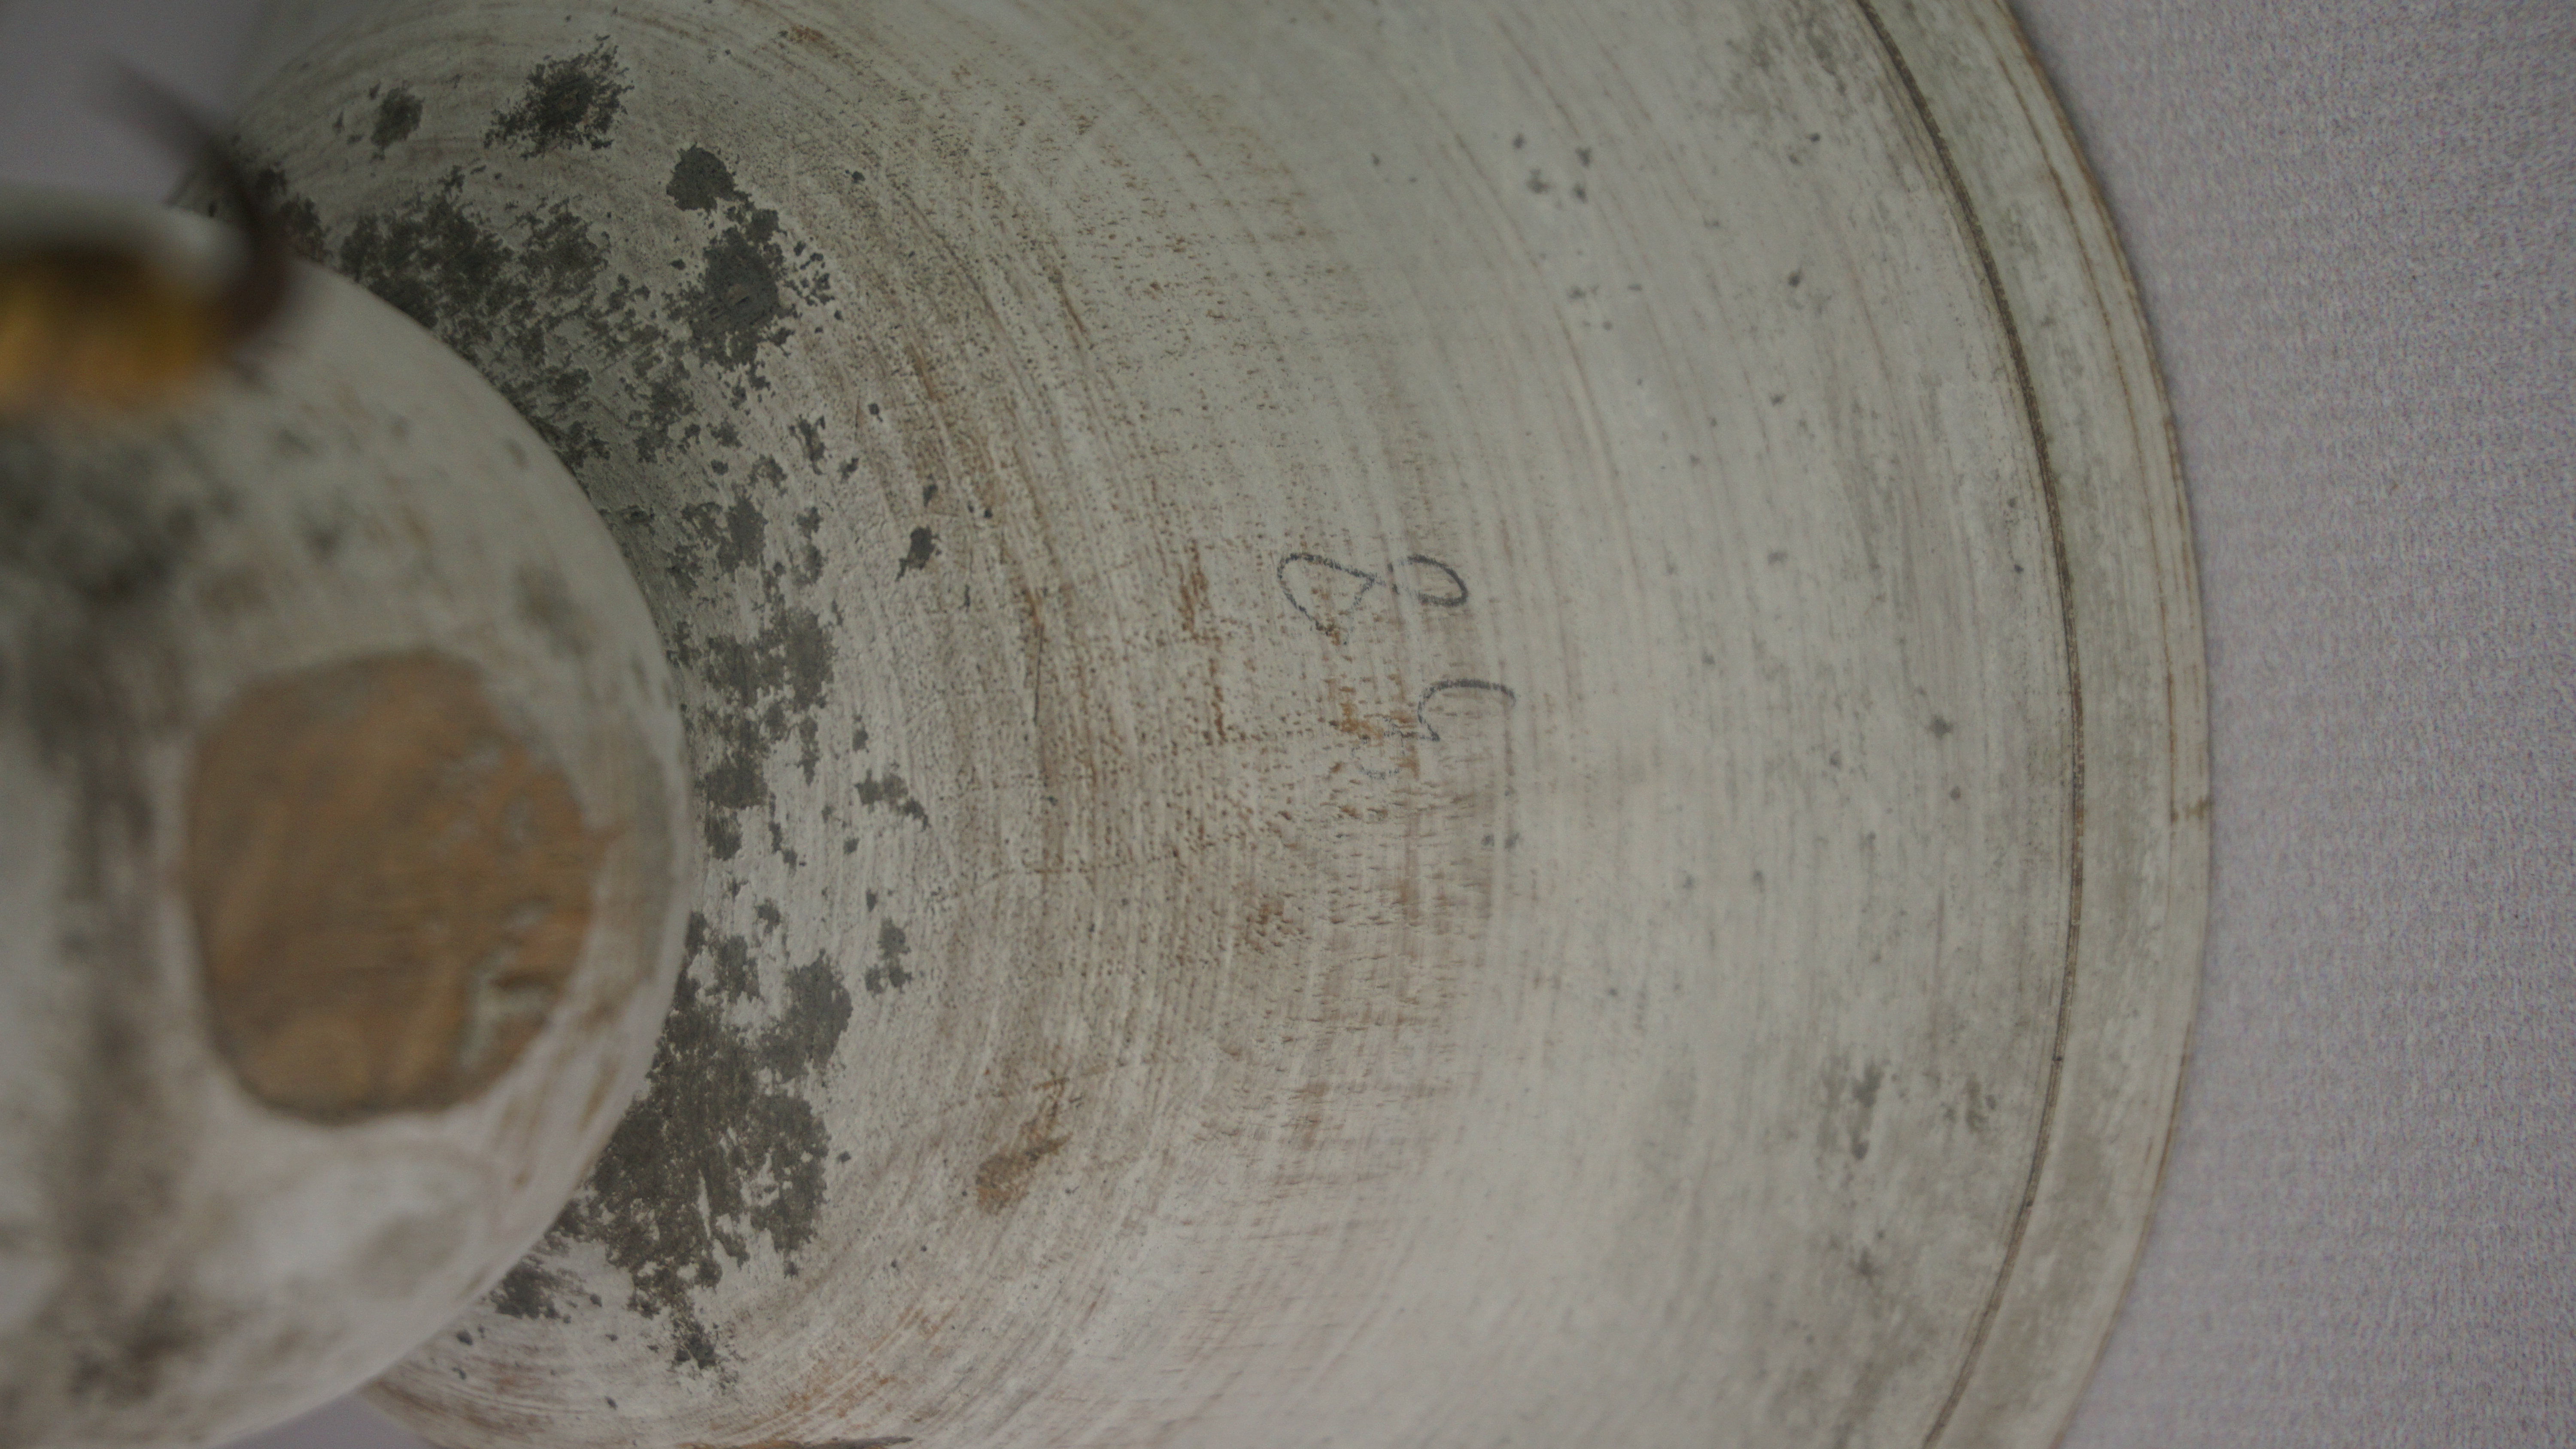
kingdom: Animalia
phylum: Chordata
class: Aves
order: Accipitriformes
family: Accipitridae
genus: Circus
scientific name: Circus buffoni
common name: Long-winged harrier
